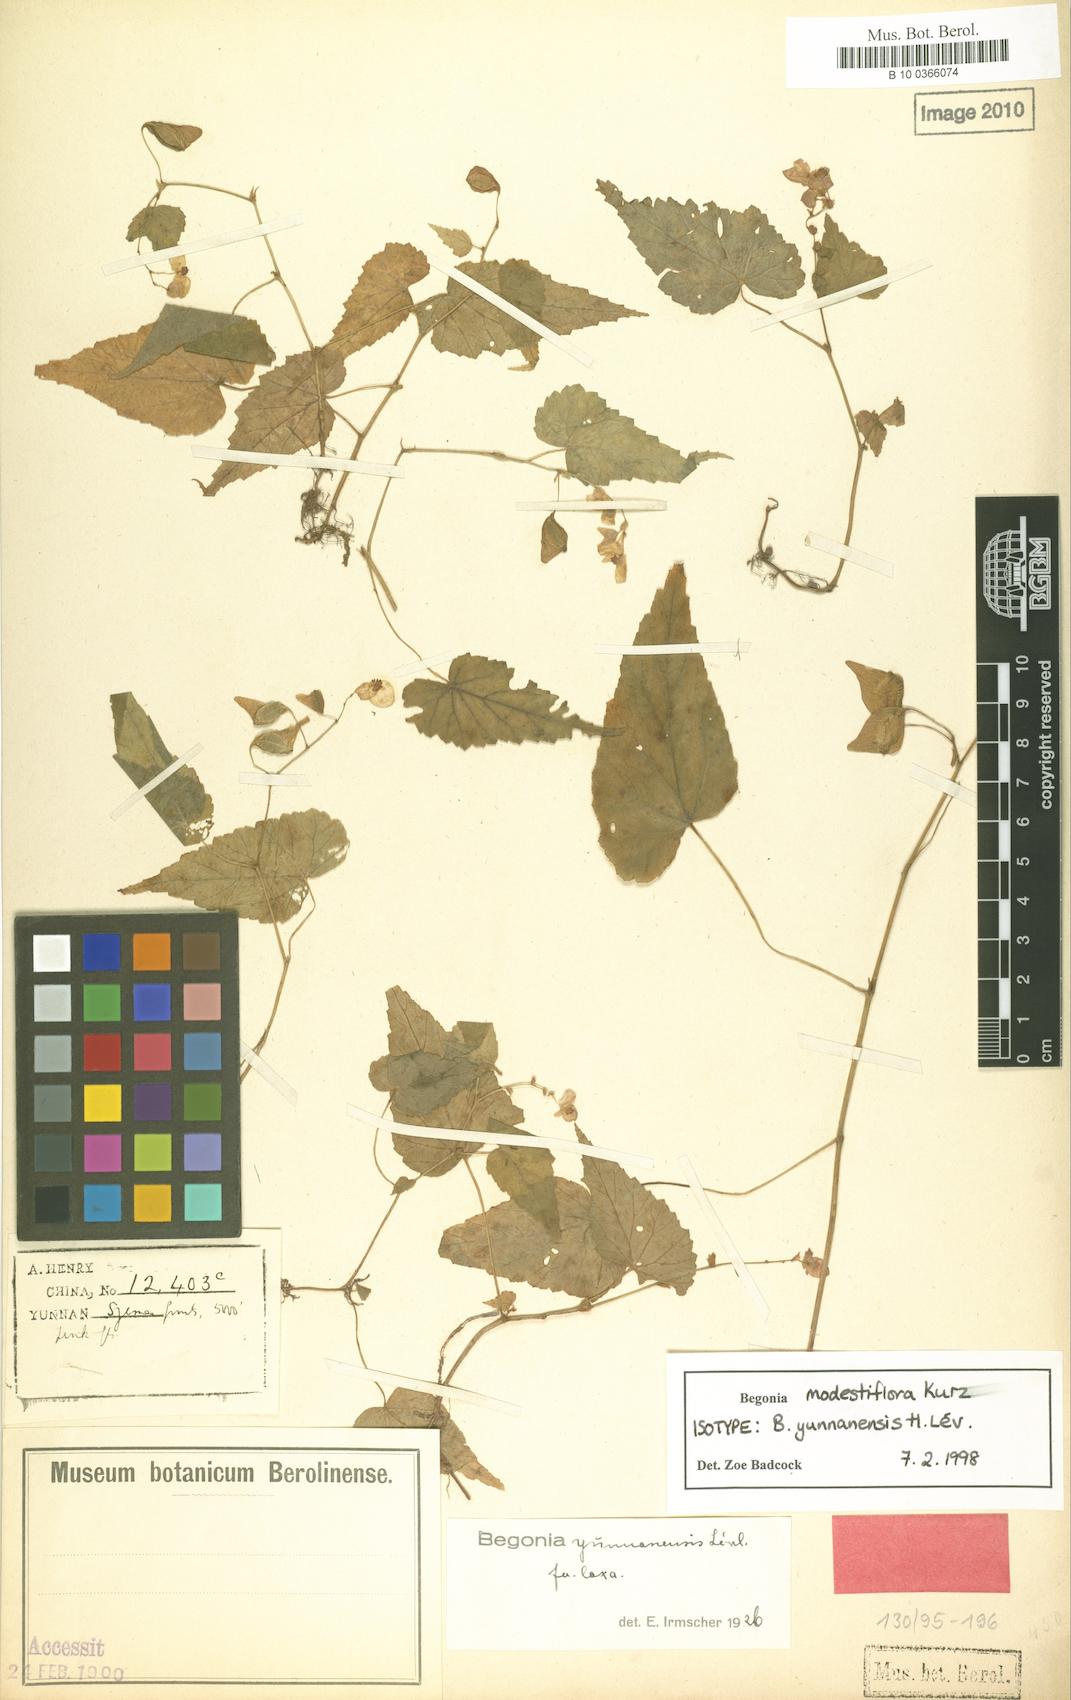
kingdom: Plantae
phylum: Tracheophyta
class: Magnoliopsida
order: Cucurbitales
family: Begoniaceae
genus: Begonia
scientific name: Begonia modestiflora
